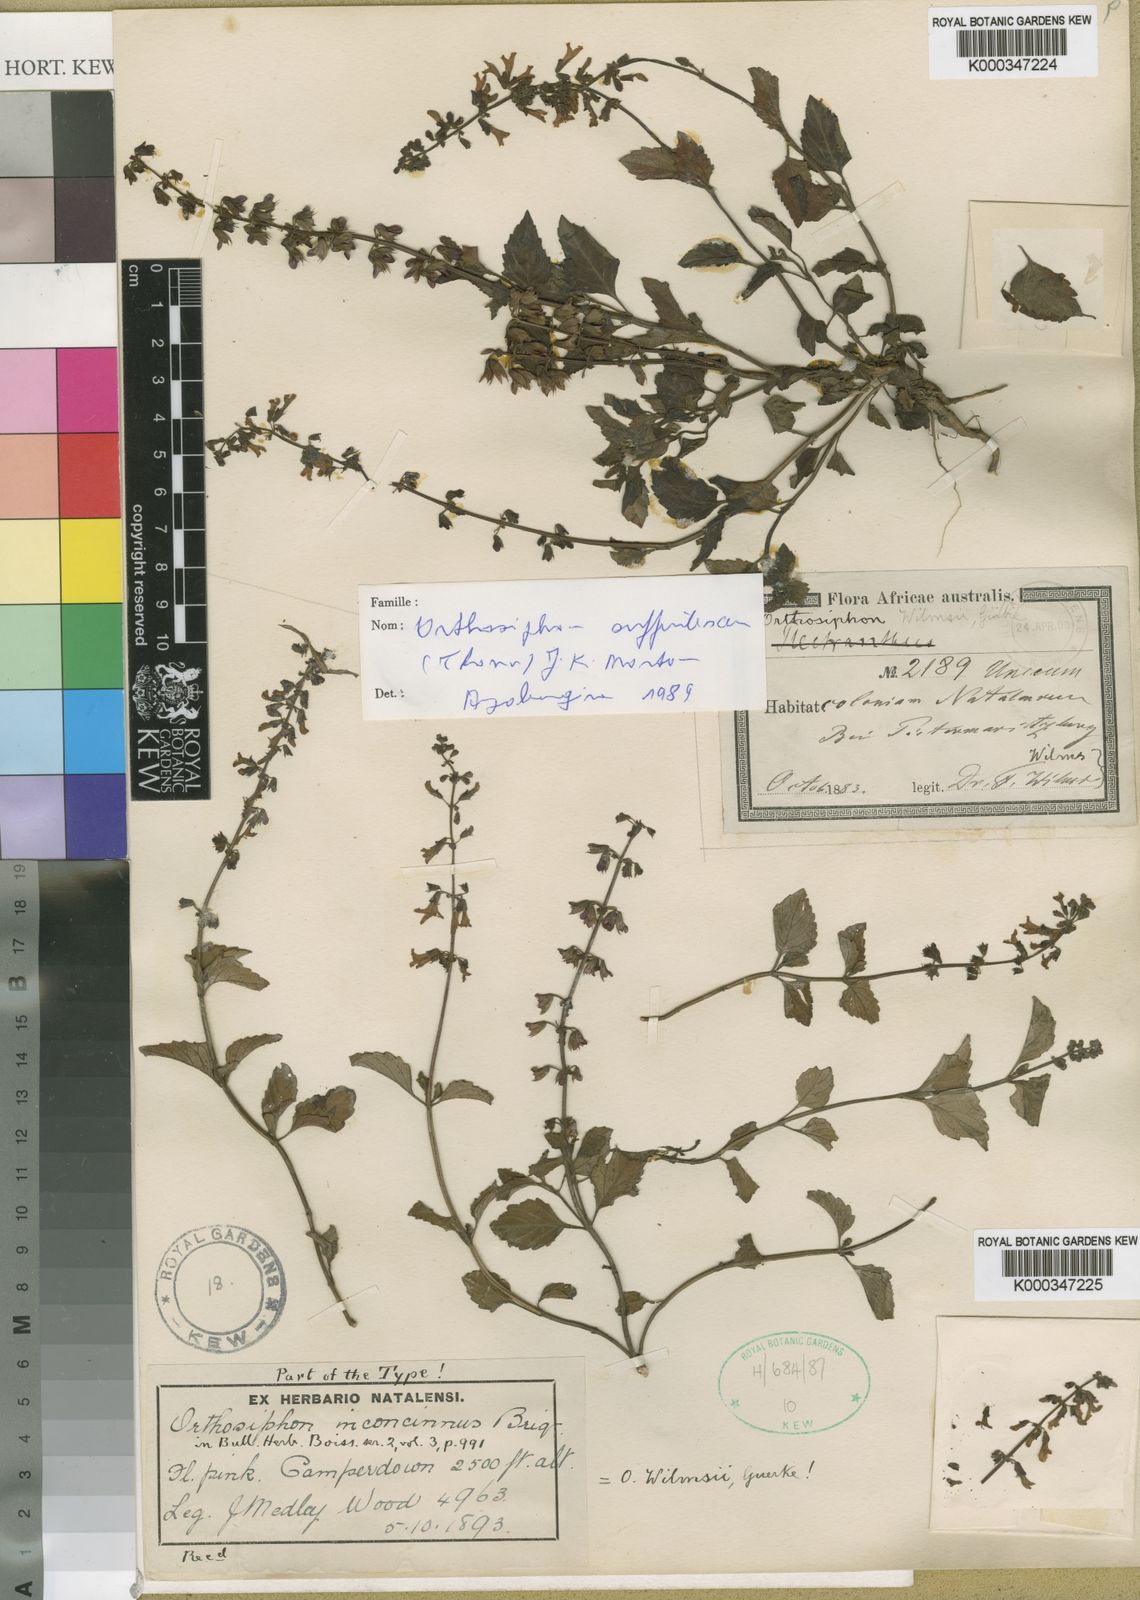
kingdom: Plantae
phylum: Tracheophyta
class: Magnoliopsida
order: Lamiales
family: Lamiaceae
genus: Orthosiphon
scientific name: Orthosiphon thymiflorus
